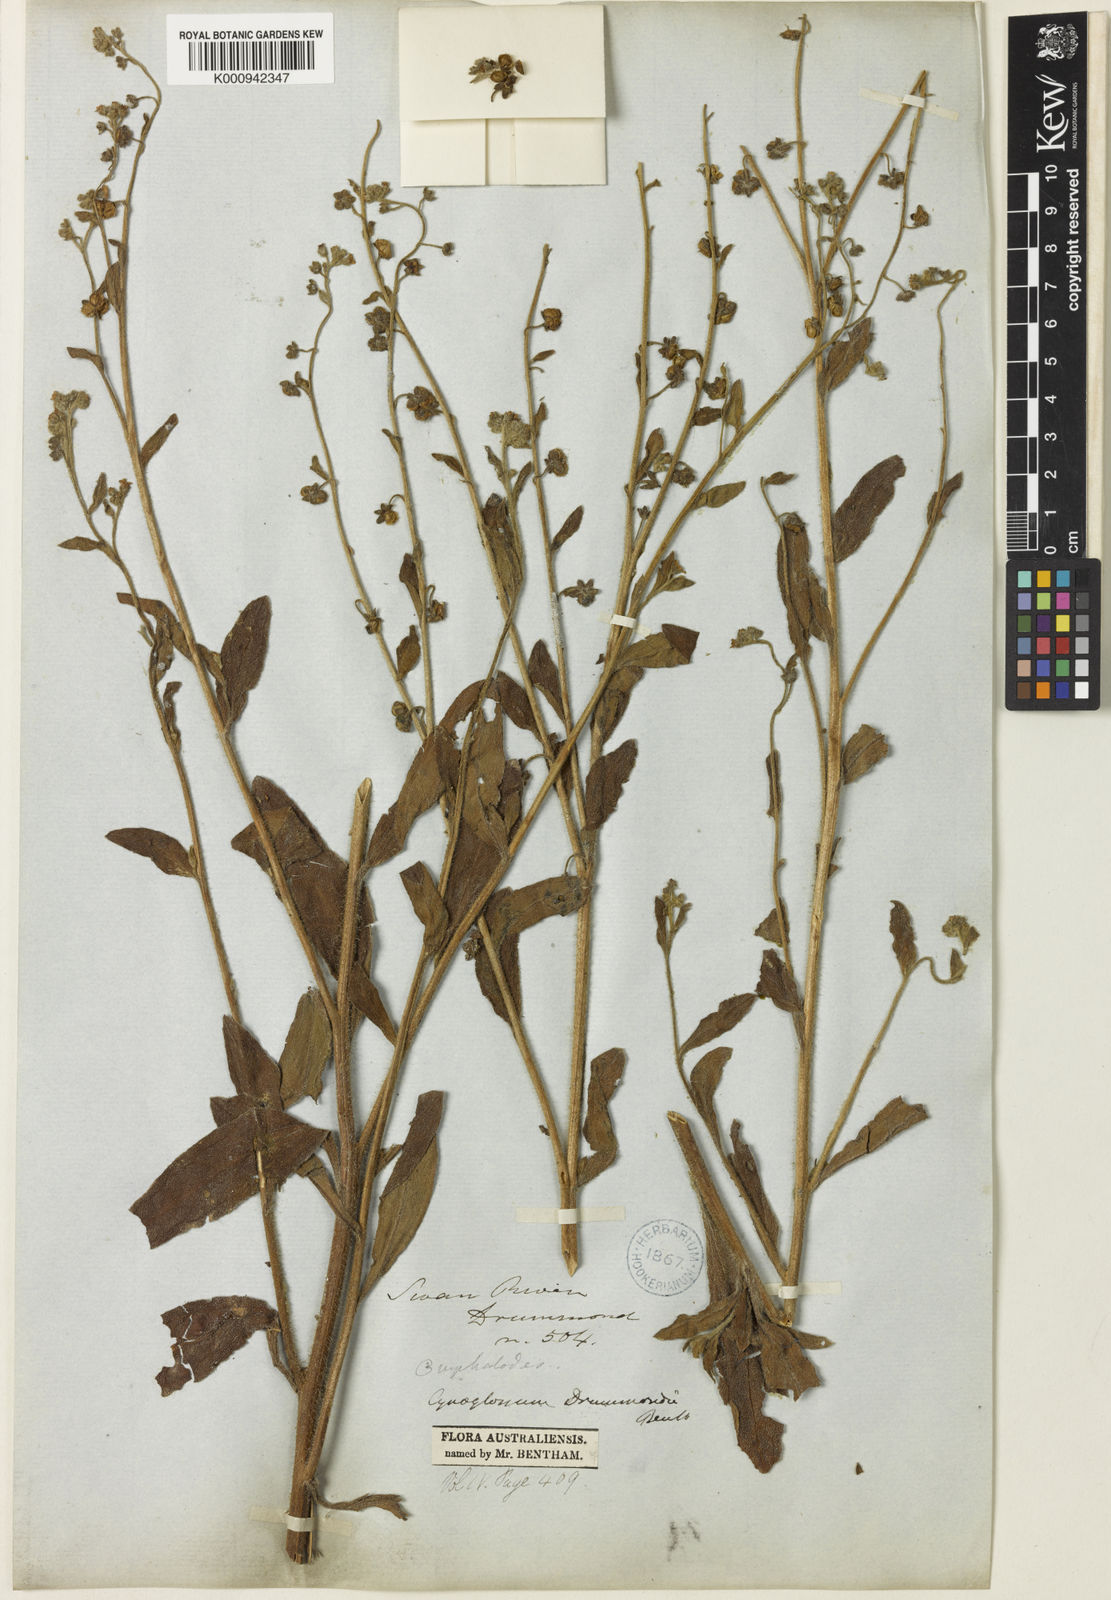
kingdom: Plantae
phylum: Tracheophyta
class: Magnoliopsida
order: Boraginales
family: Boraginaceae
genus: Cynoglossum
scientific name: Cynoglossum australe
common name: Australian hound's-tongue
